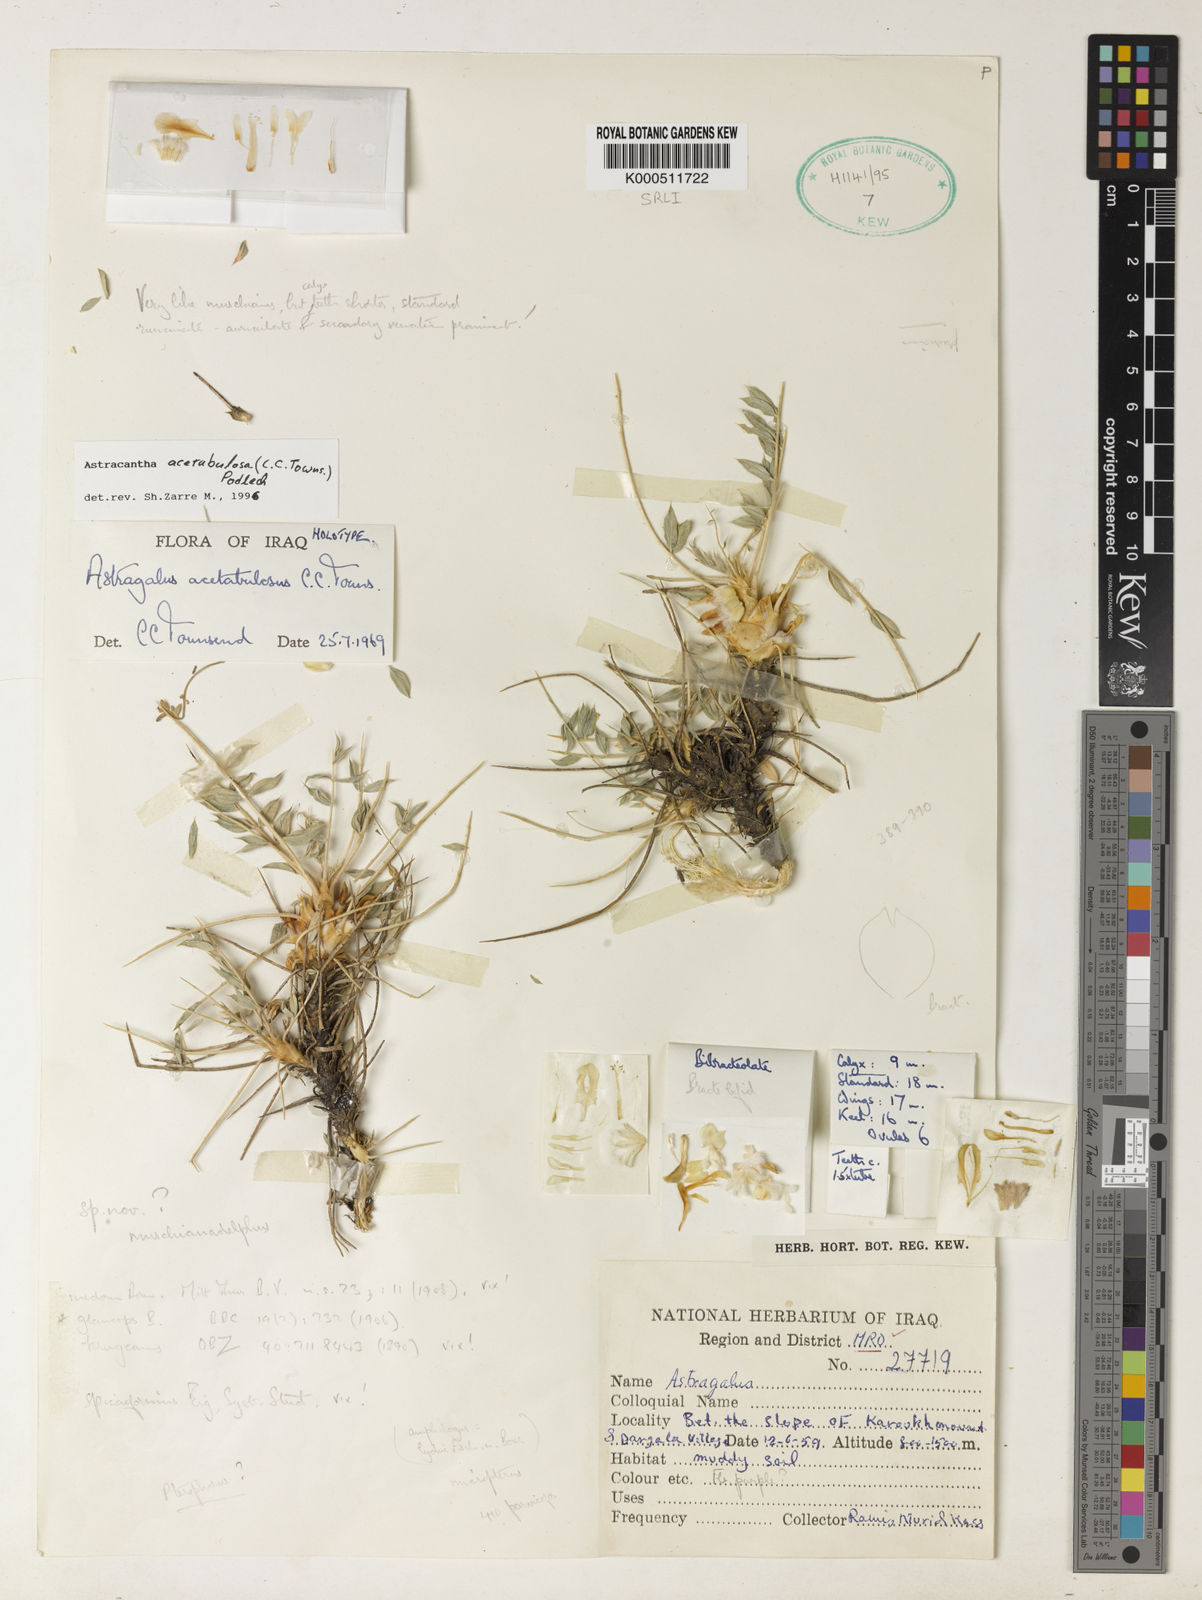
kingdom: Plantae
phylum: Tracheophyta
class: Magnoliopsida
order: Fabales
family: Fabaceae
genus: Astragalus
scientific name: Astragalus acetabulosus
